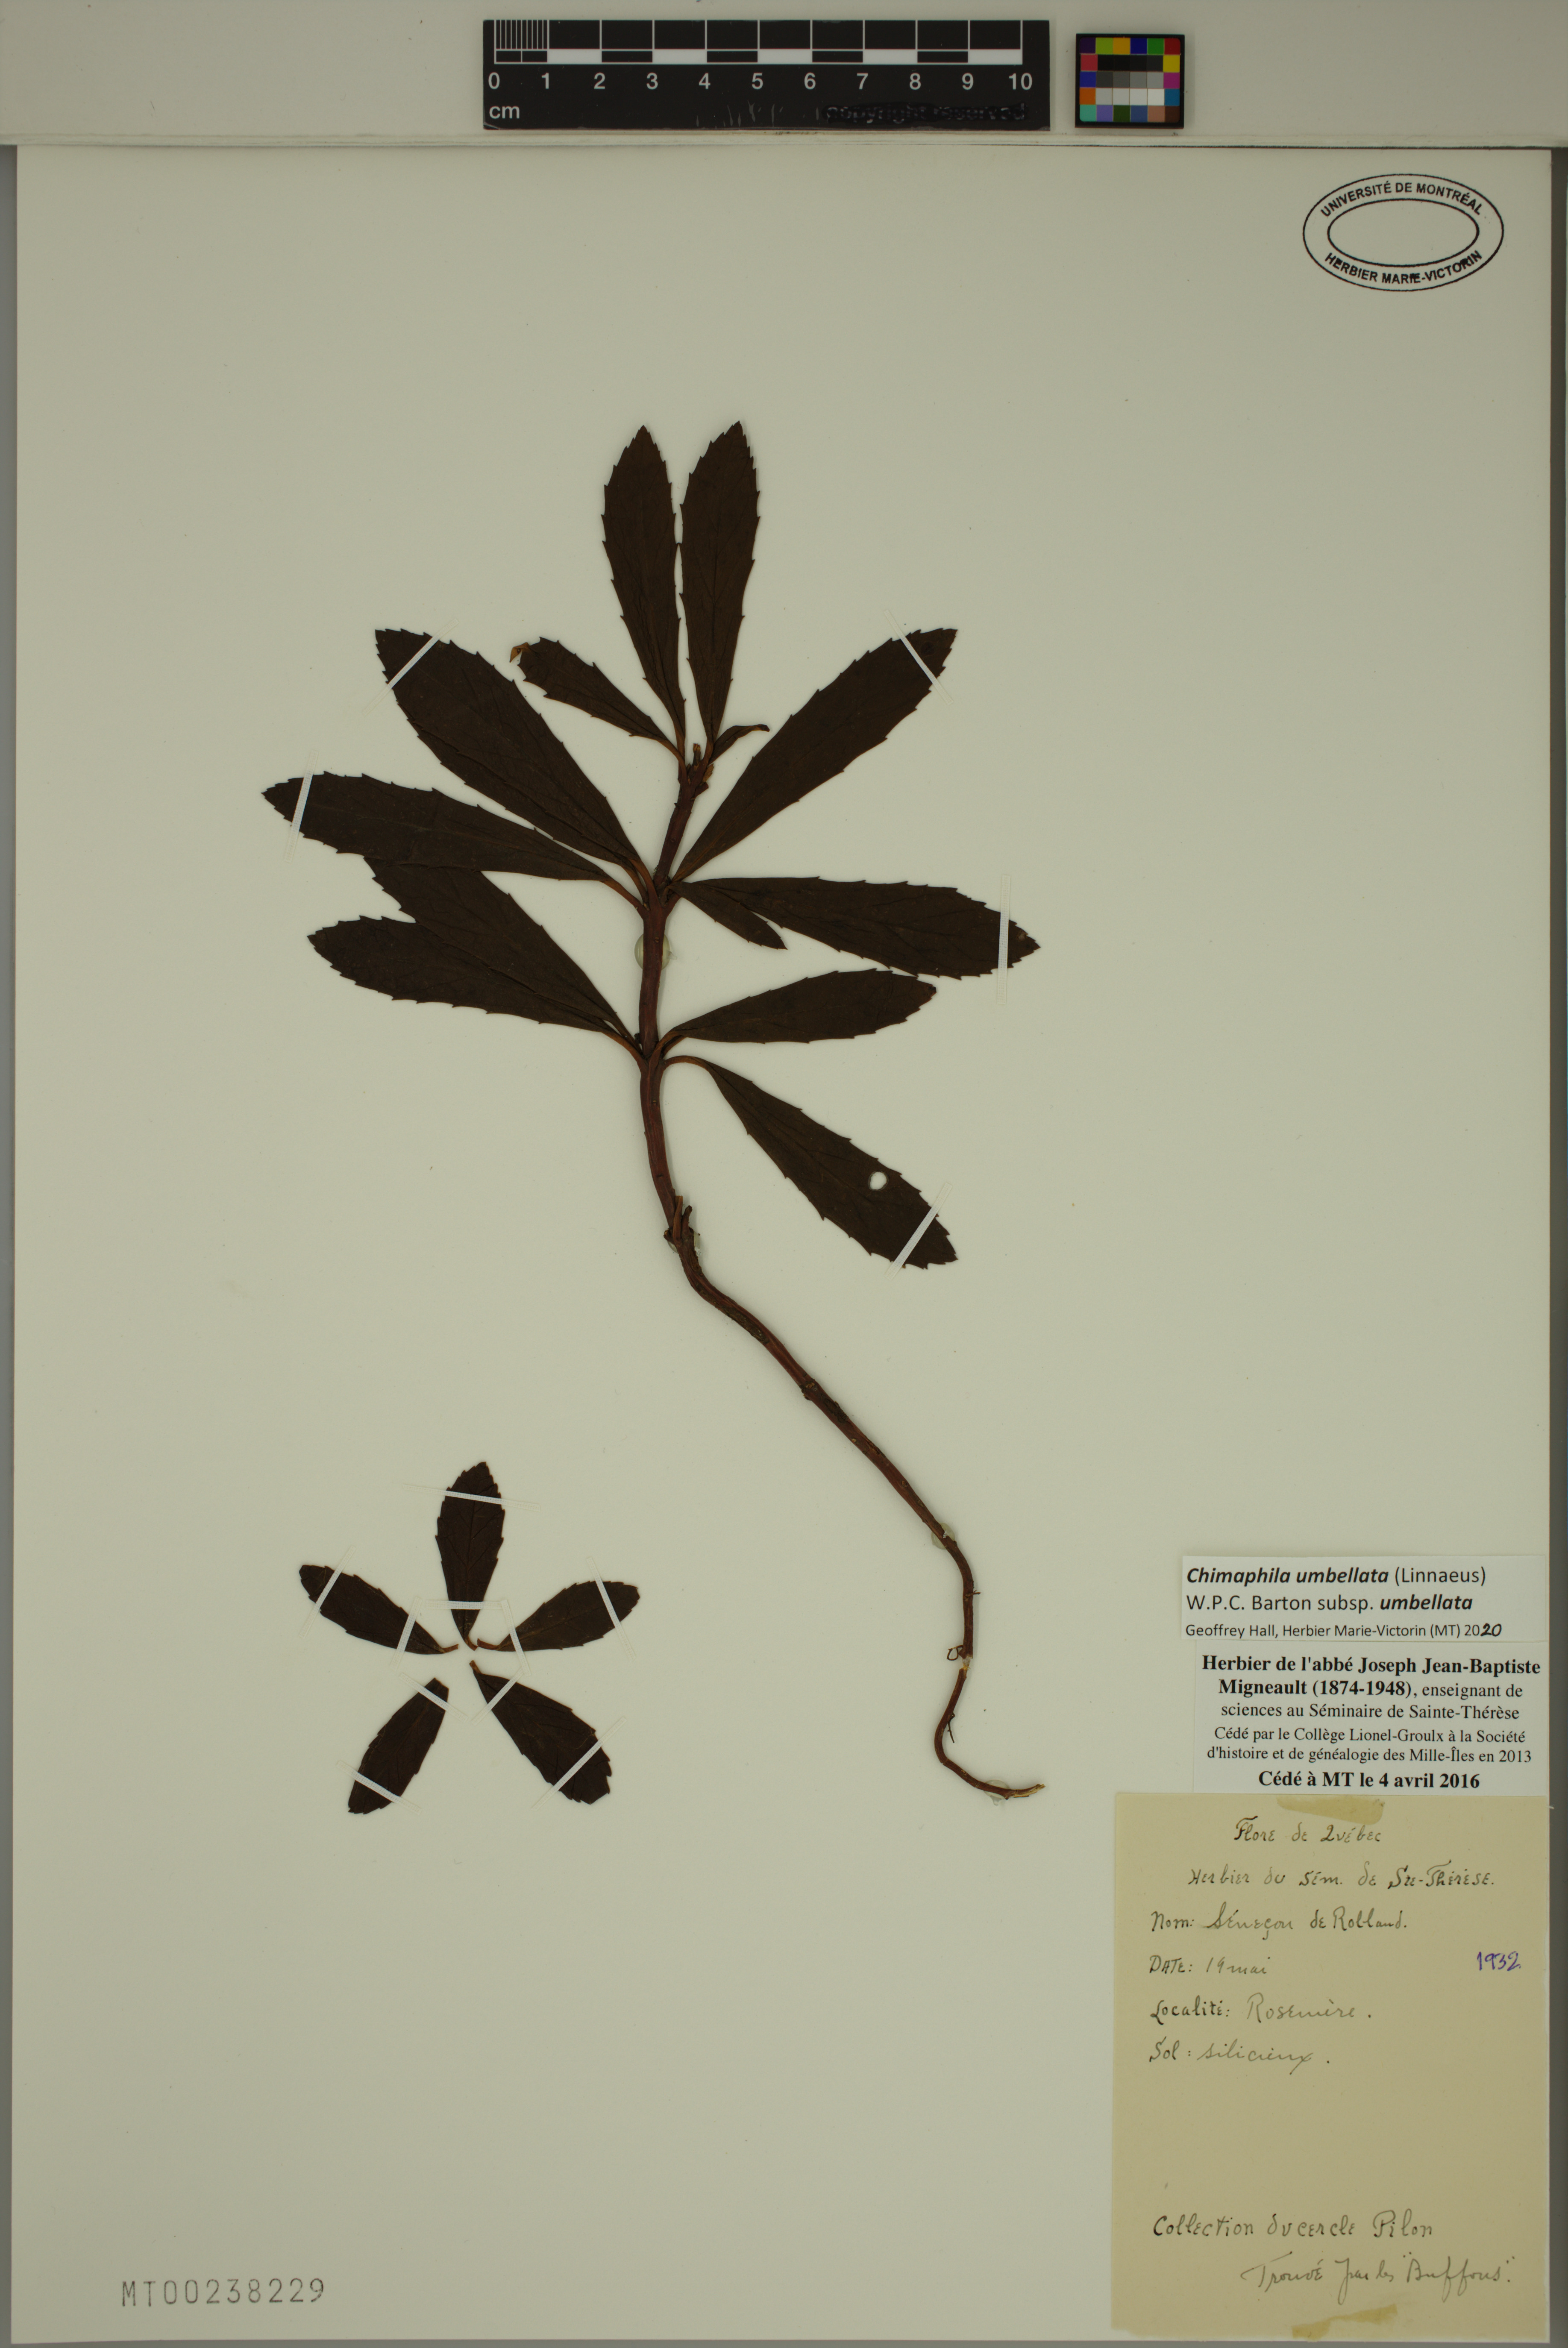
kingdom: Plantae
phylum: Tracheophyta
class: Magnoliopsida
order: Ericales
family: Ericaceae
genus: Chimaphila
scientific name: Chimaphila umbellata
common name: Pipsissewa
